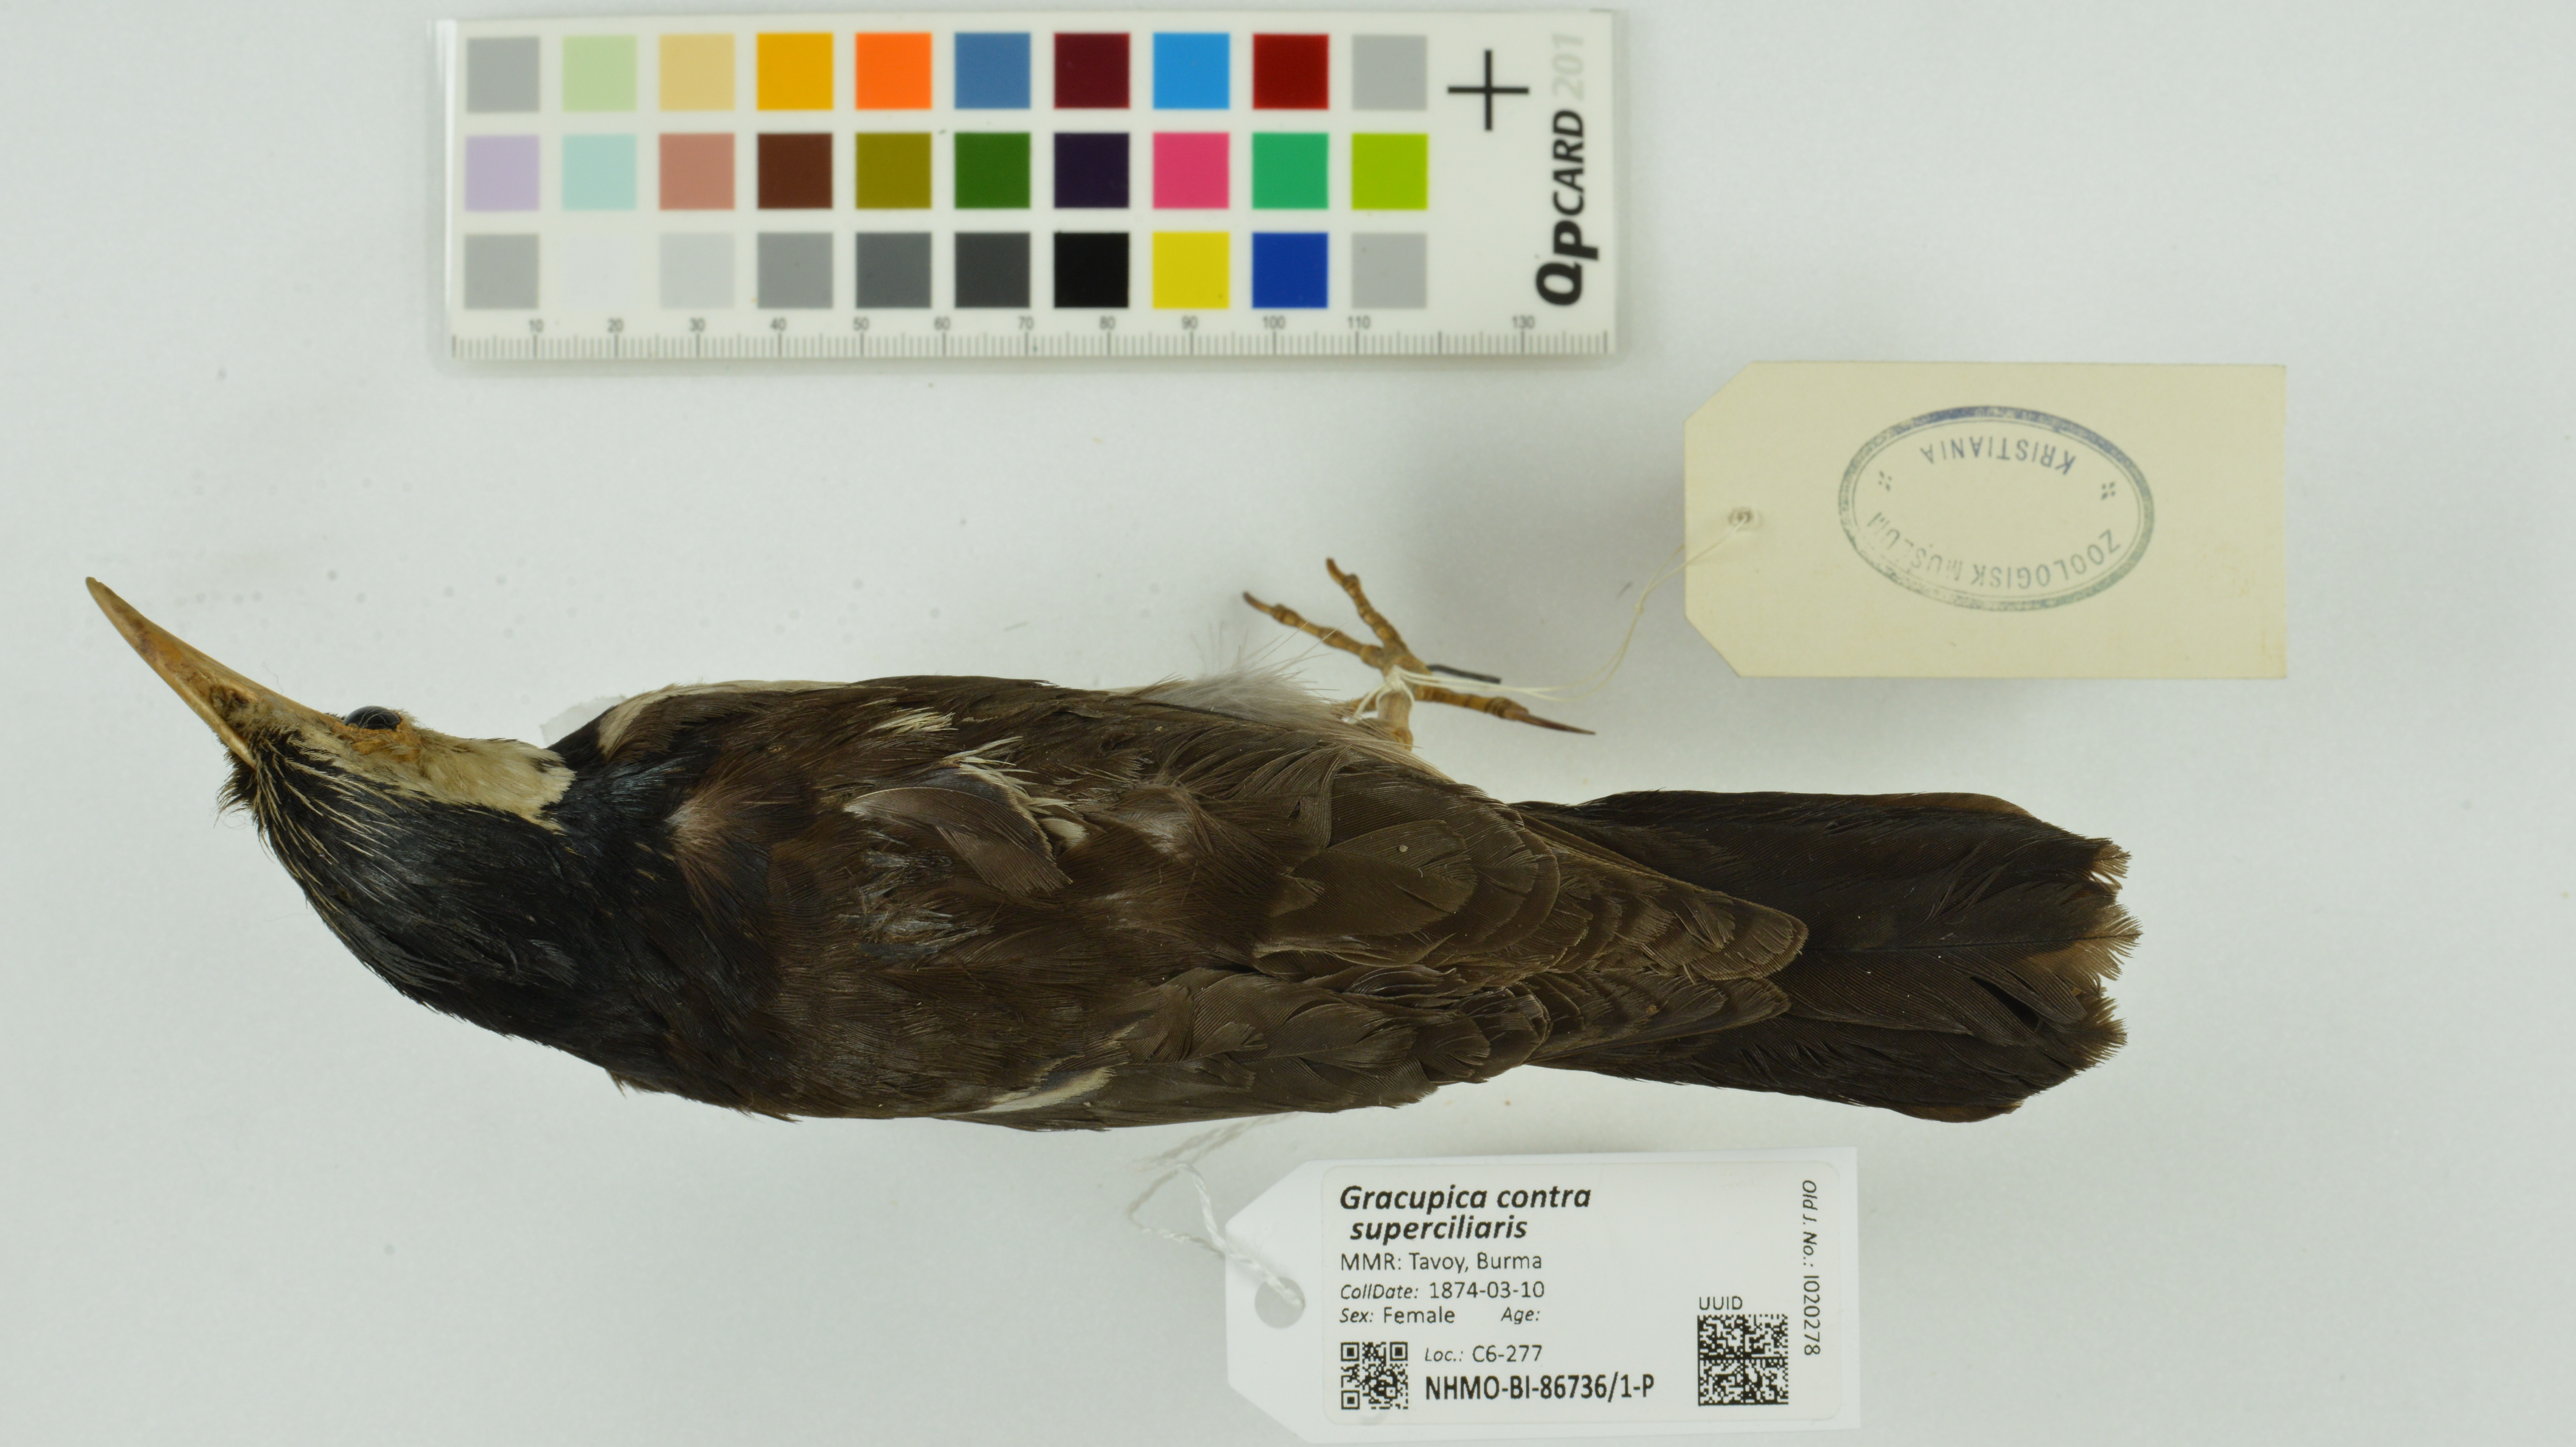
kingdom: Animalia
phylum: Chordata
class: Aves
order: Passeriformes
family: Sturnidae
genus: Gracupica
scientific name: Gracupica contra
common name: Pied myna
